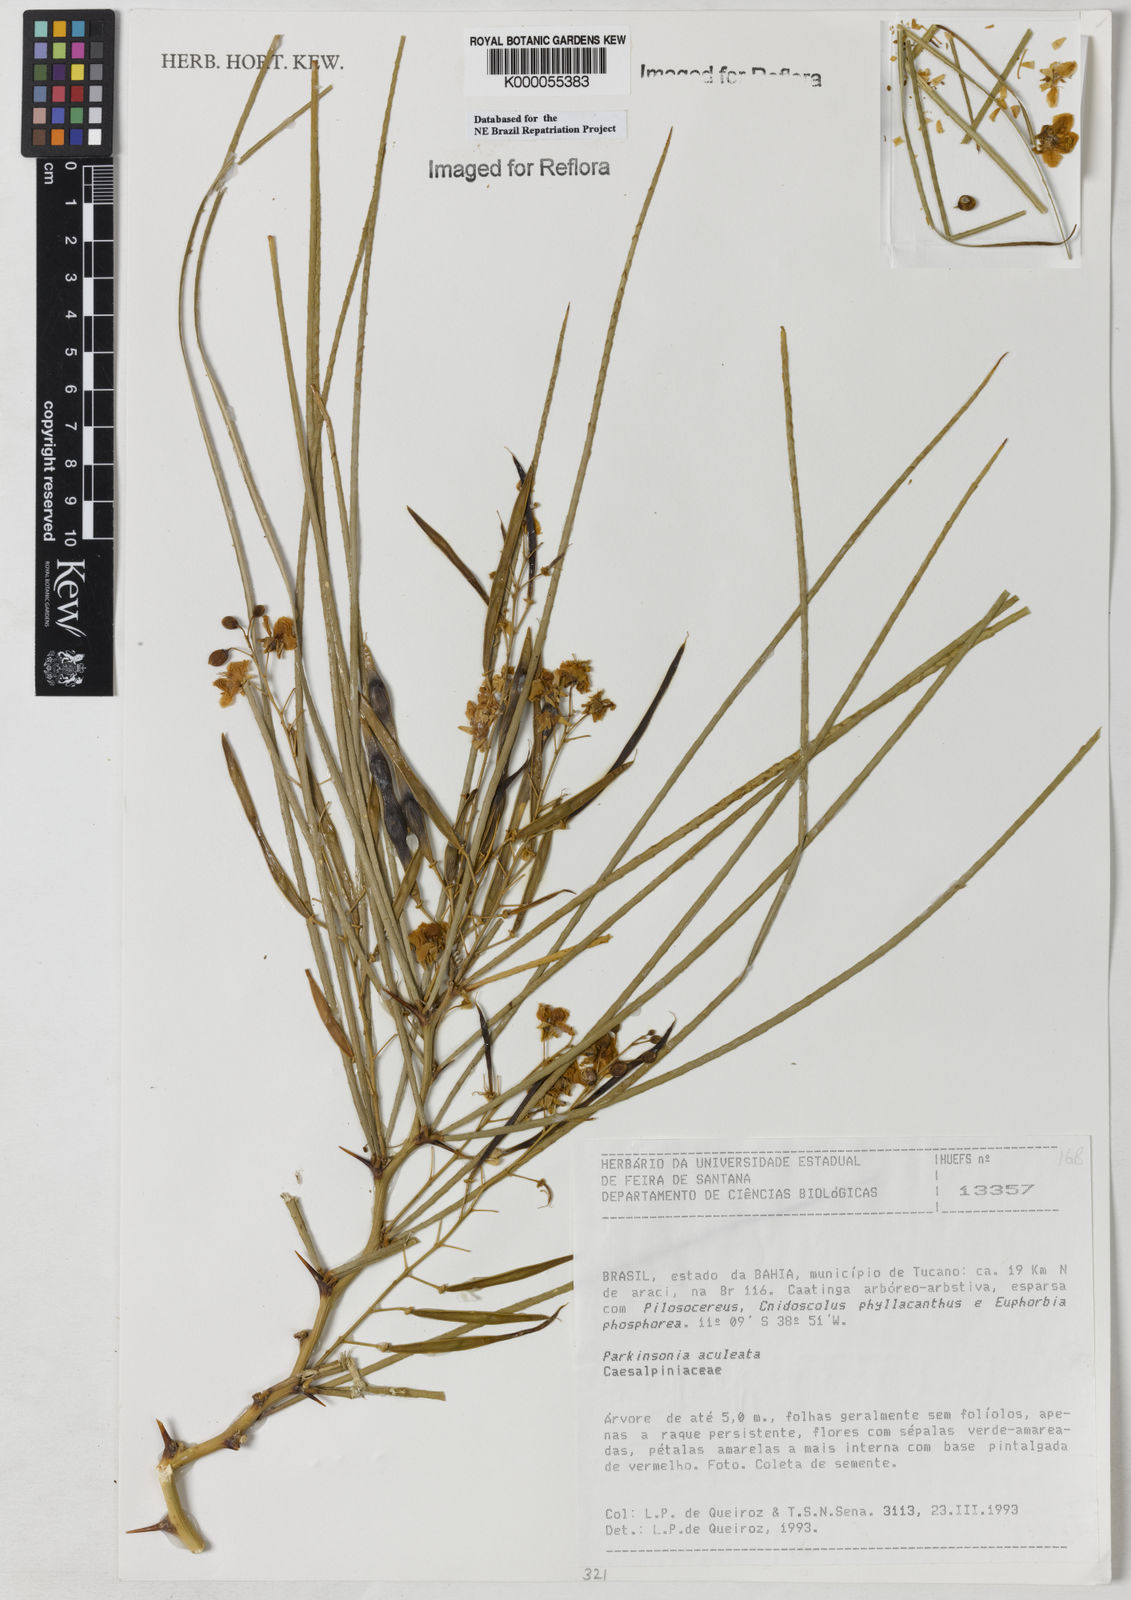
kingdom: Plantae
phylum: Tracheophyta
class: Magnoliopsida
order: Fabales
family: Fabaceae
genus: Parkinsonia
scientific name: Parkinsonia aculeata
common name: Jerusalem thorn
